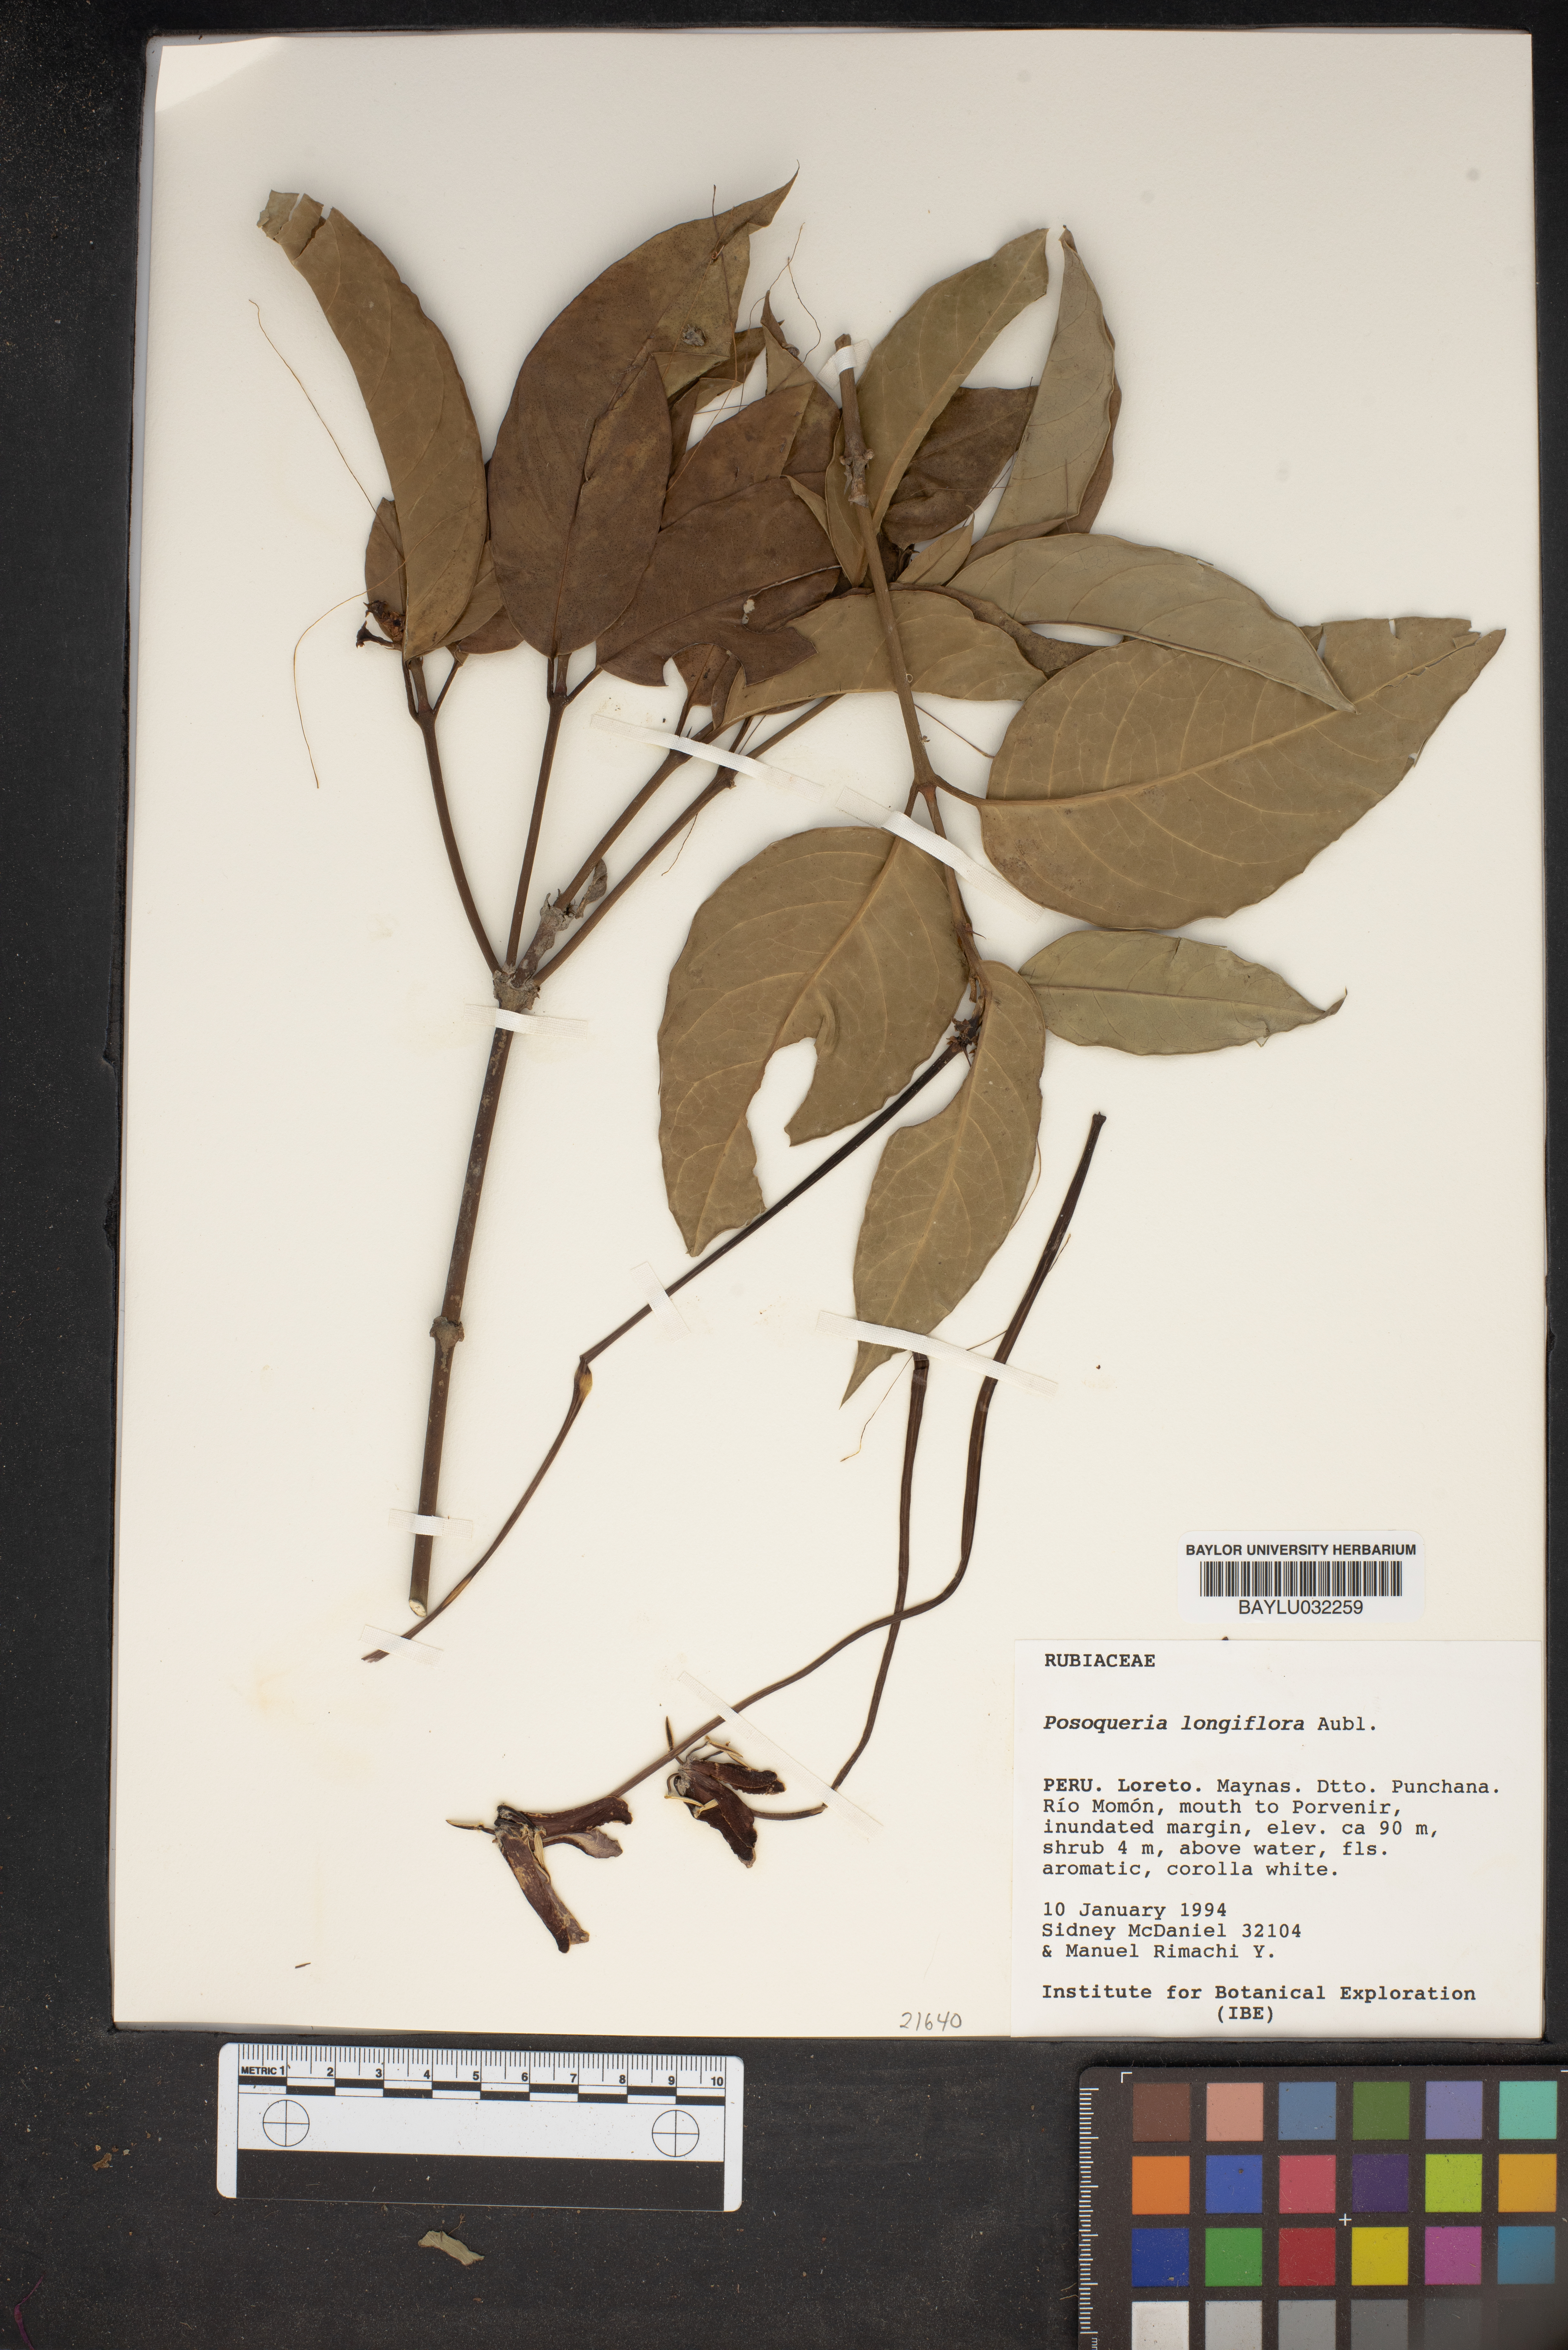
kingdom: Plantae
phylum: Tracheophyta
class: Magnoliopsida
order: Gentianales
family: Rubiaceae
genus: Posoqueria
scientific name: Posoqueria longiflora
